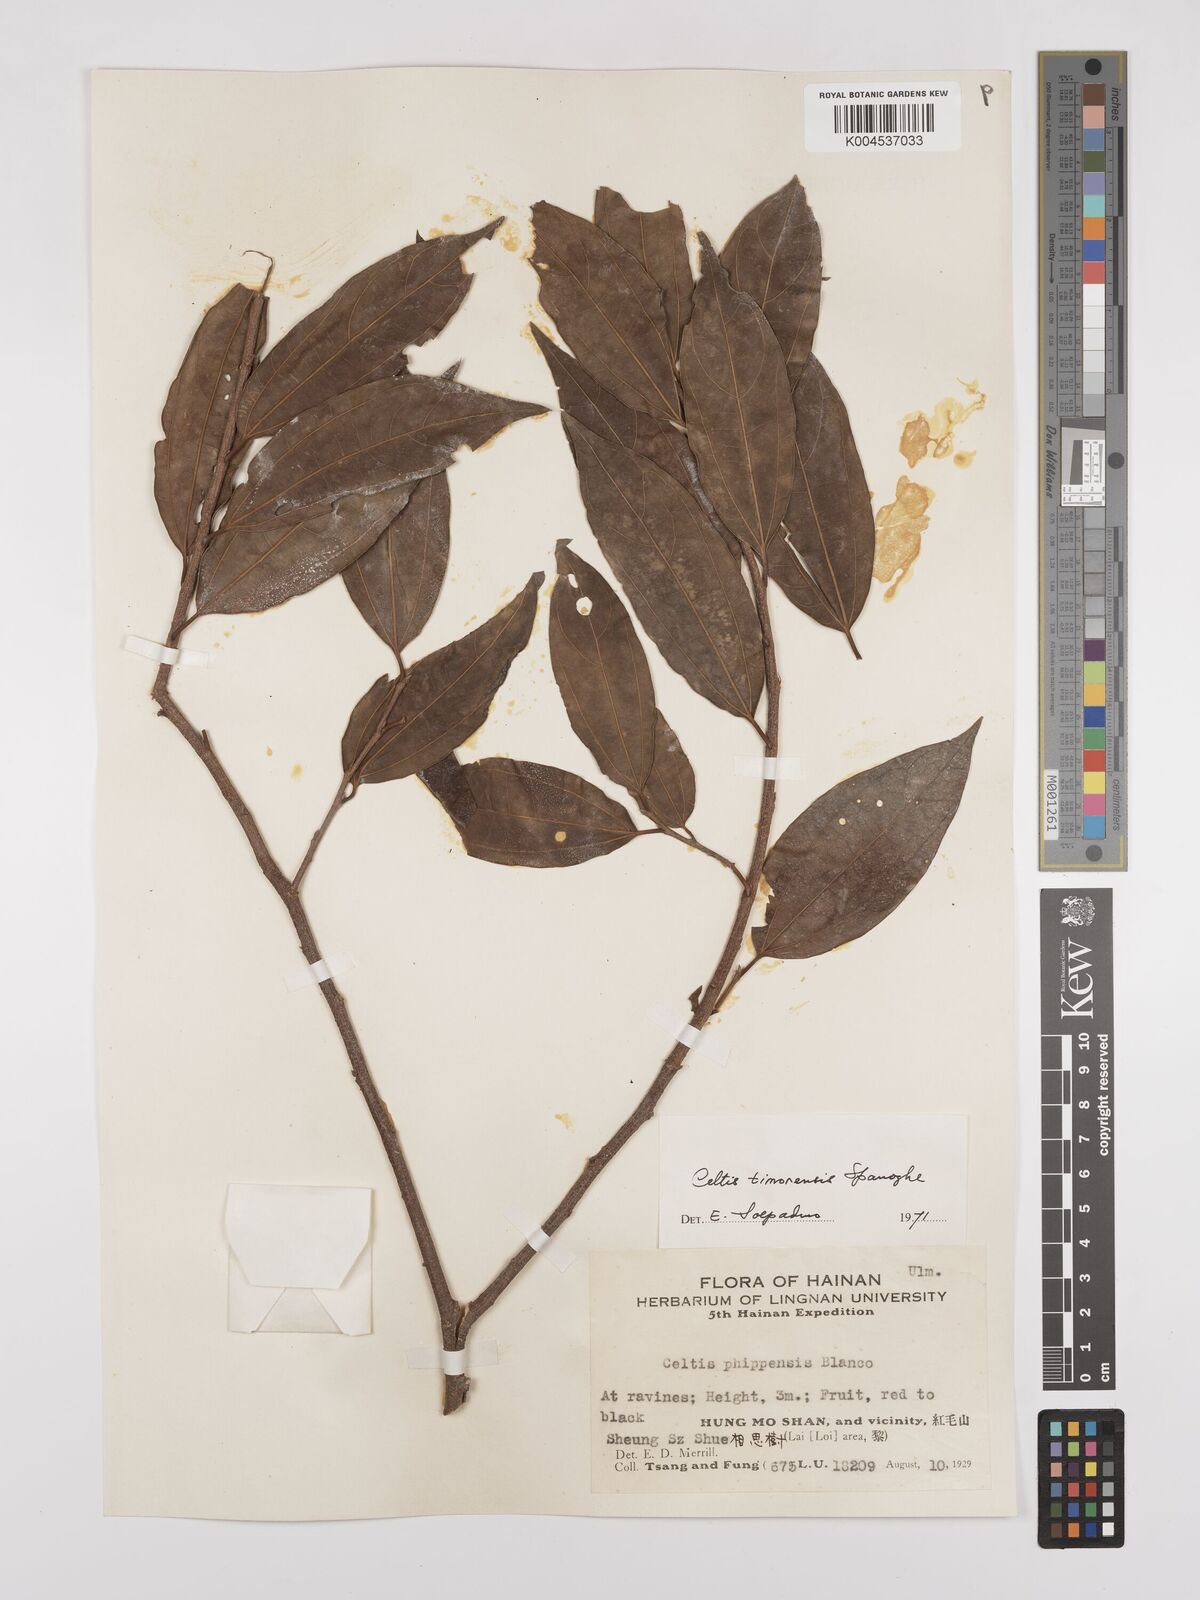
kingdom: Plantae
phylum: Tracheophyta
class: Magnoliopsida
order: Rosales
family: Cannabaceae
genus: Celtis
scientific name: Celtis timorensis
